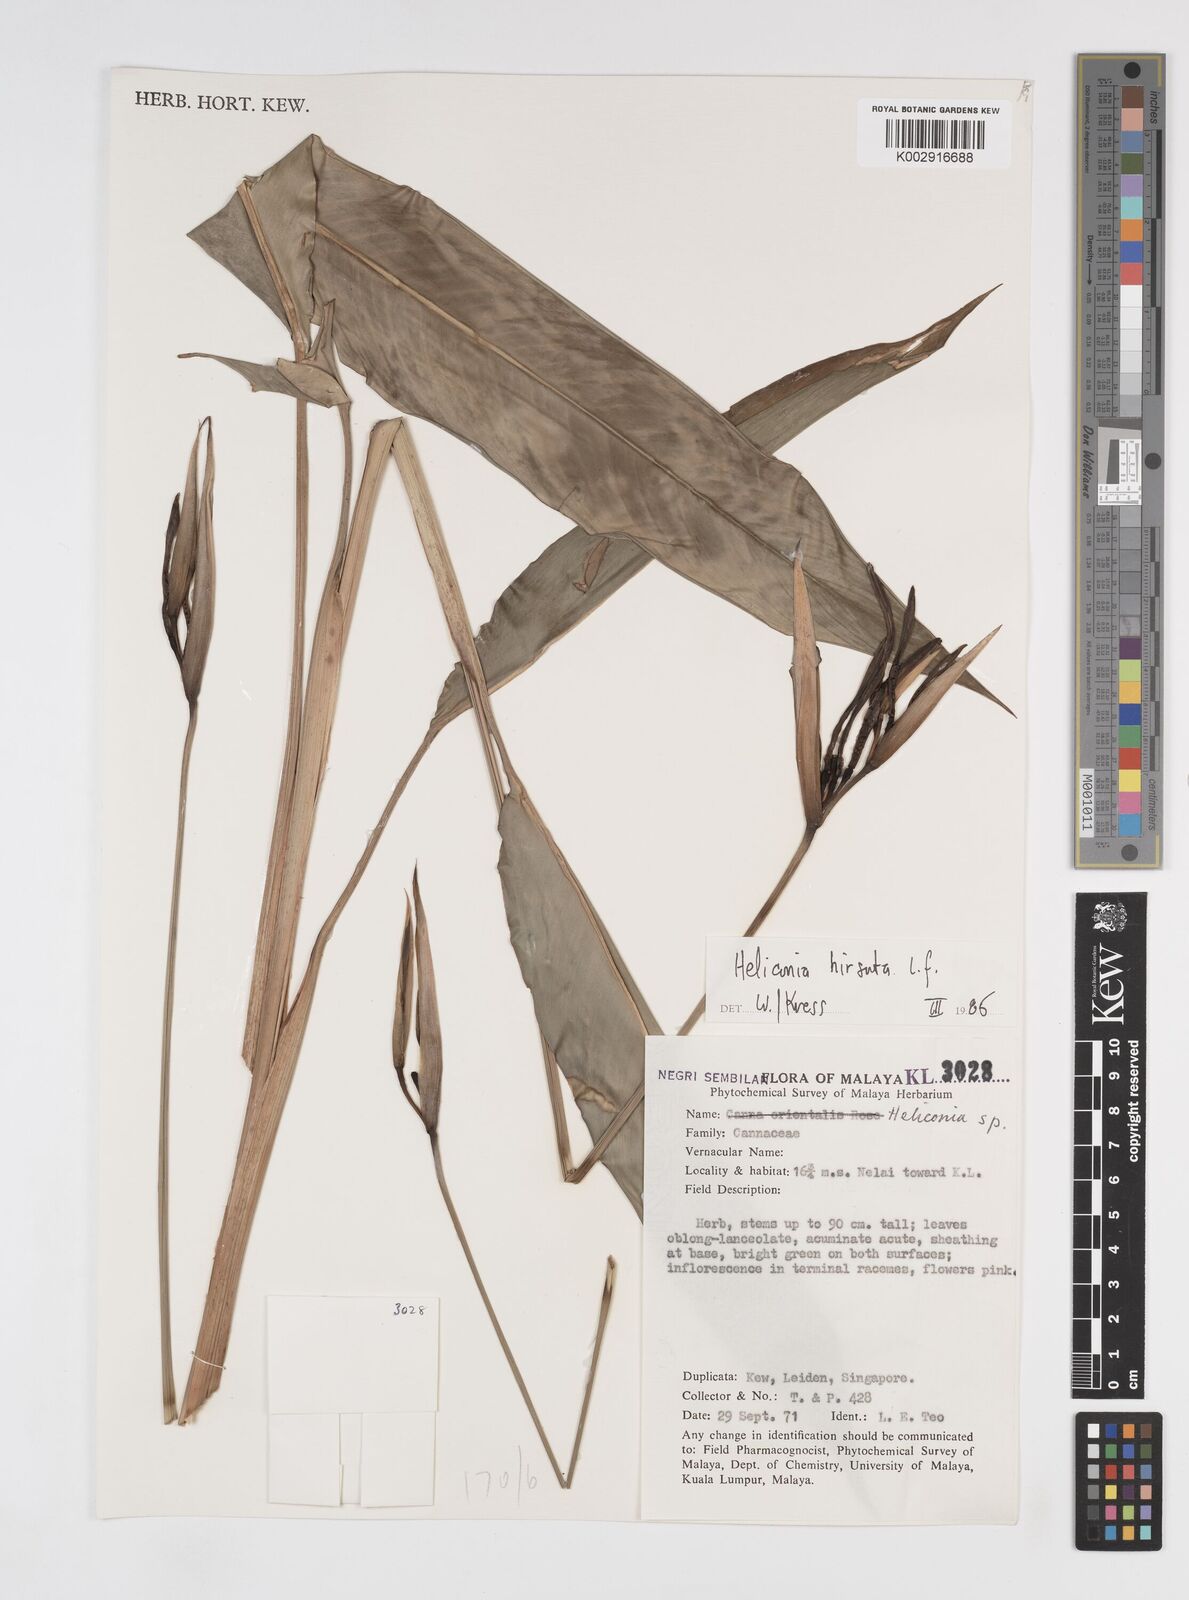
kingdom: Plantae
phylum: Tracheophyta
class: Liliopsida
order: Zingiberales
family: Heliconiaceae
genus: Heliconia
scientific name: Heliconia hirsuta
